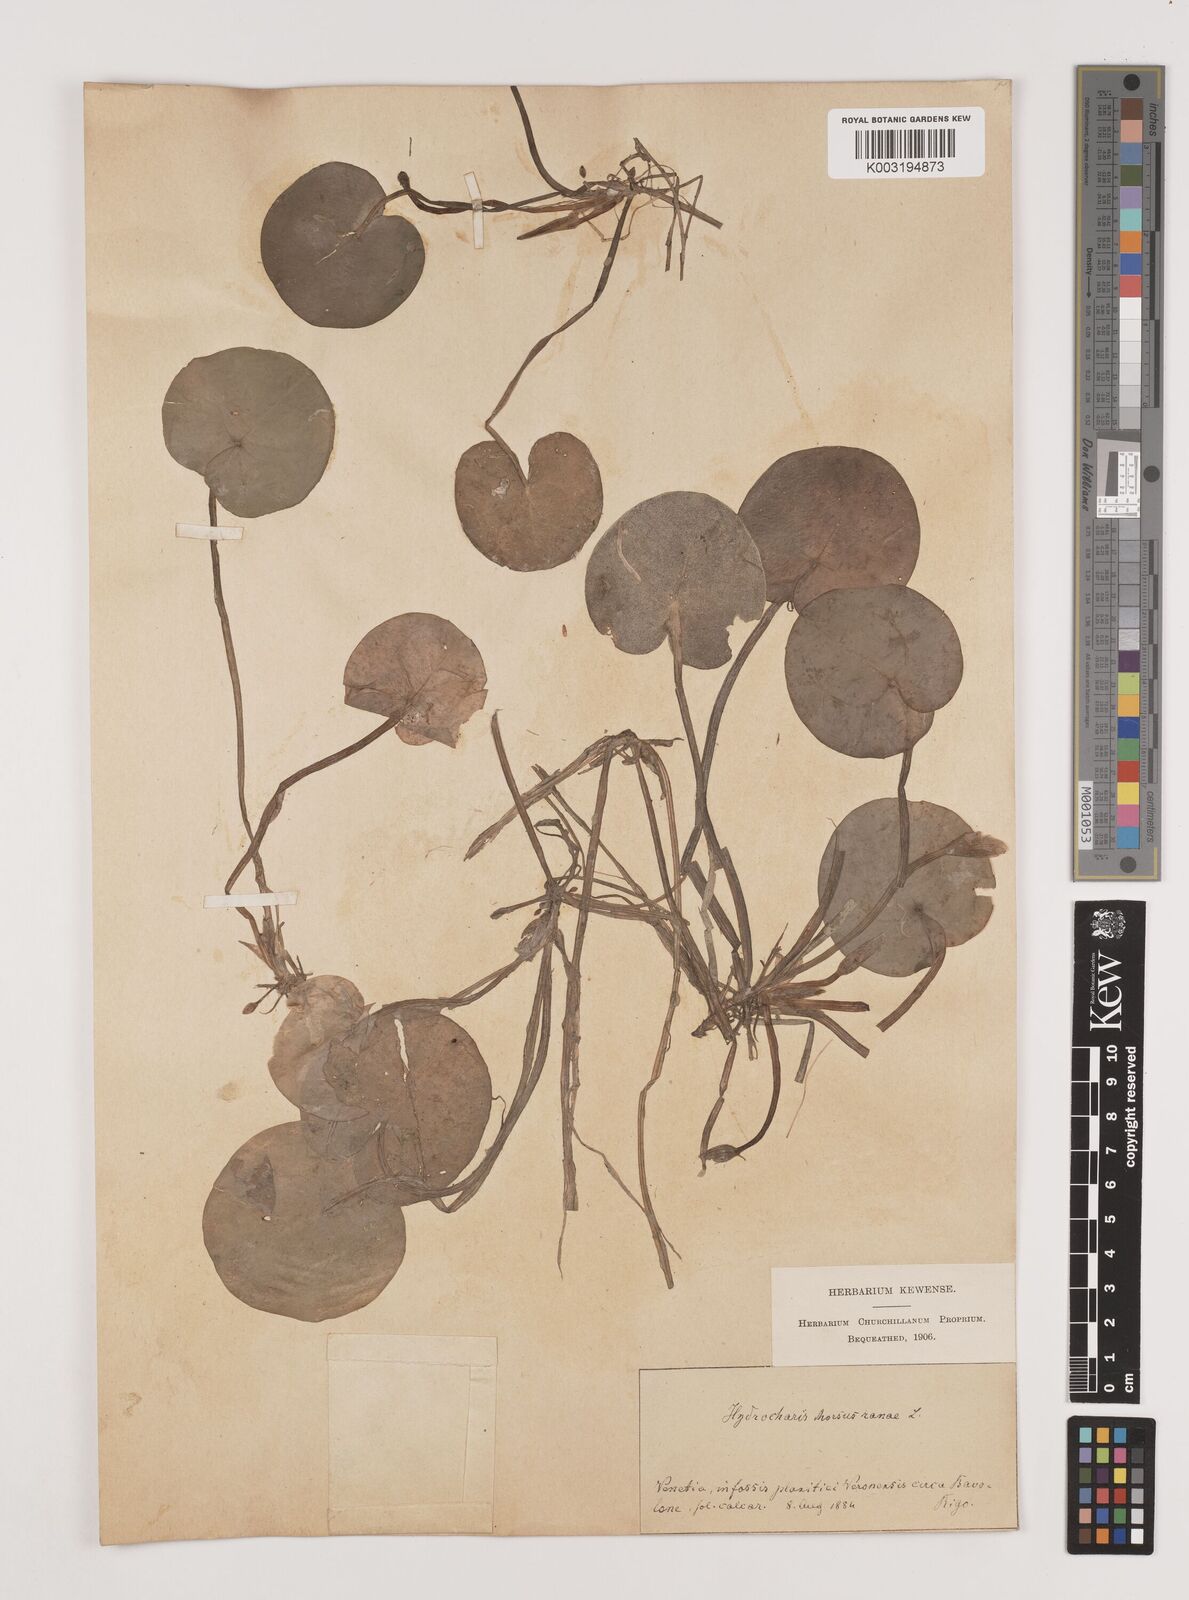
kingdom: Plantae
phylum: Tracheophyta
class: Liliopsida
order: Alismatales
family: Hydrocharitaceae
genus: Hydrocharis
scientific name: Hydrocharis morsus-ranae
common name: Frogbit
